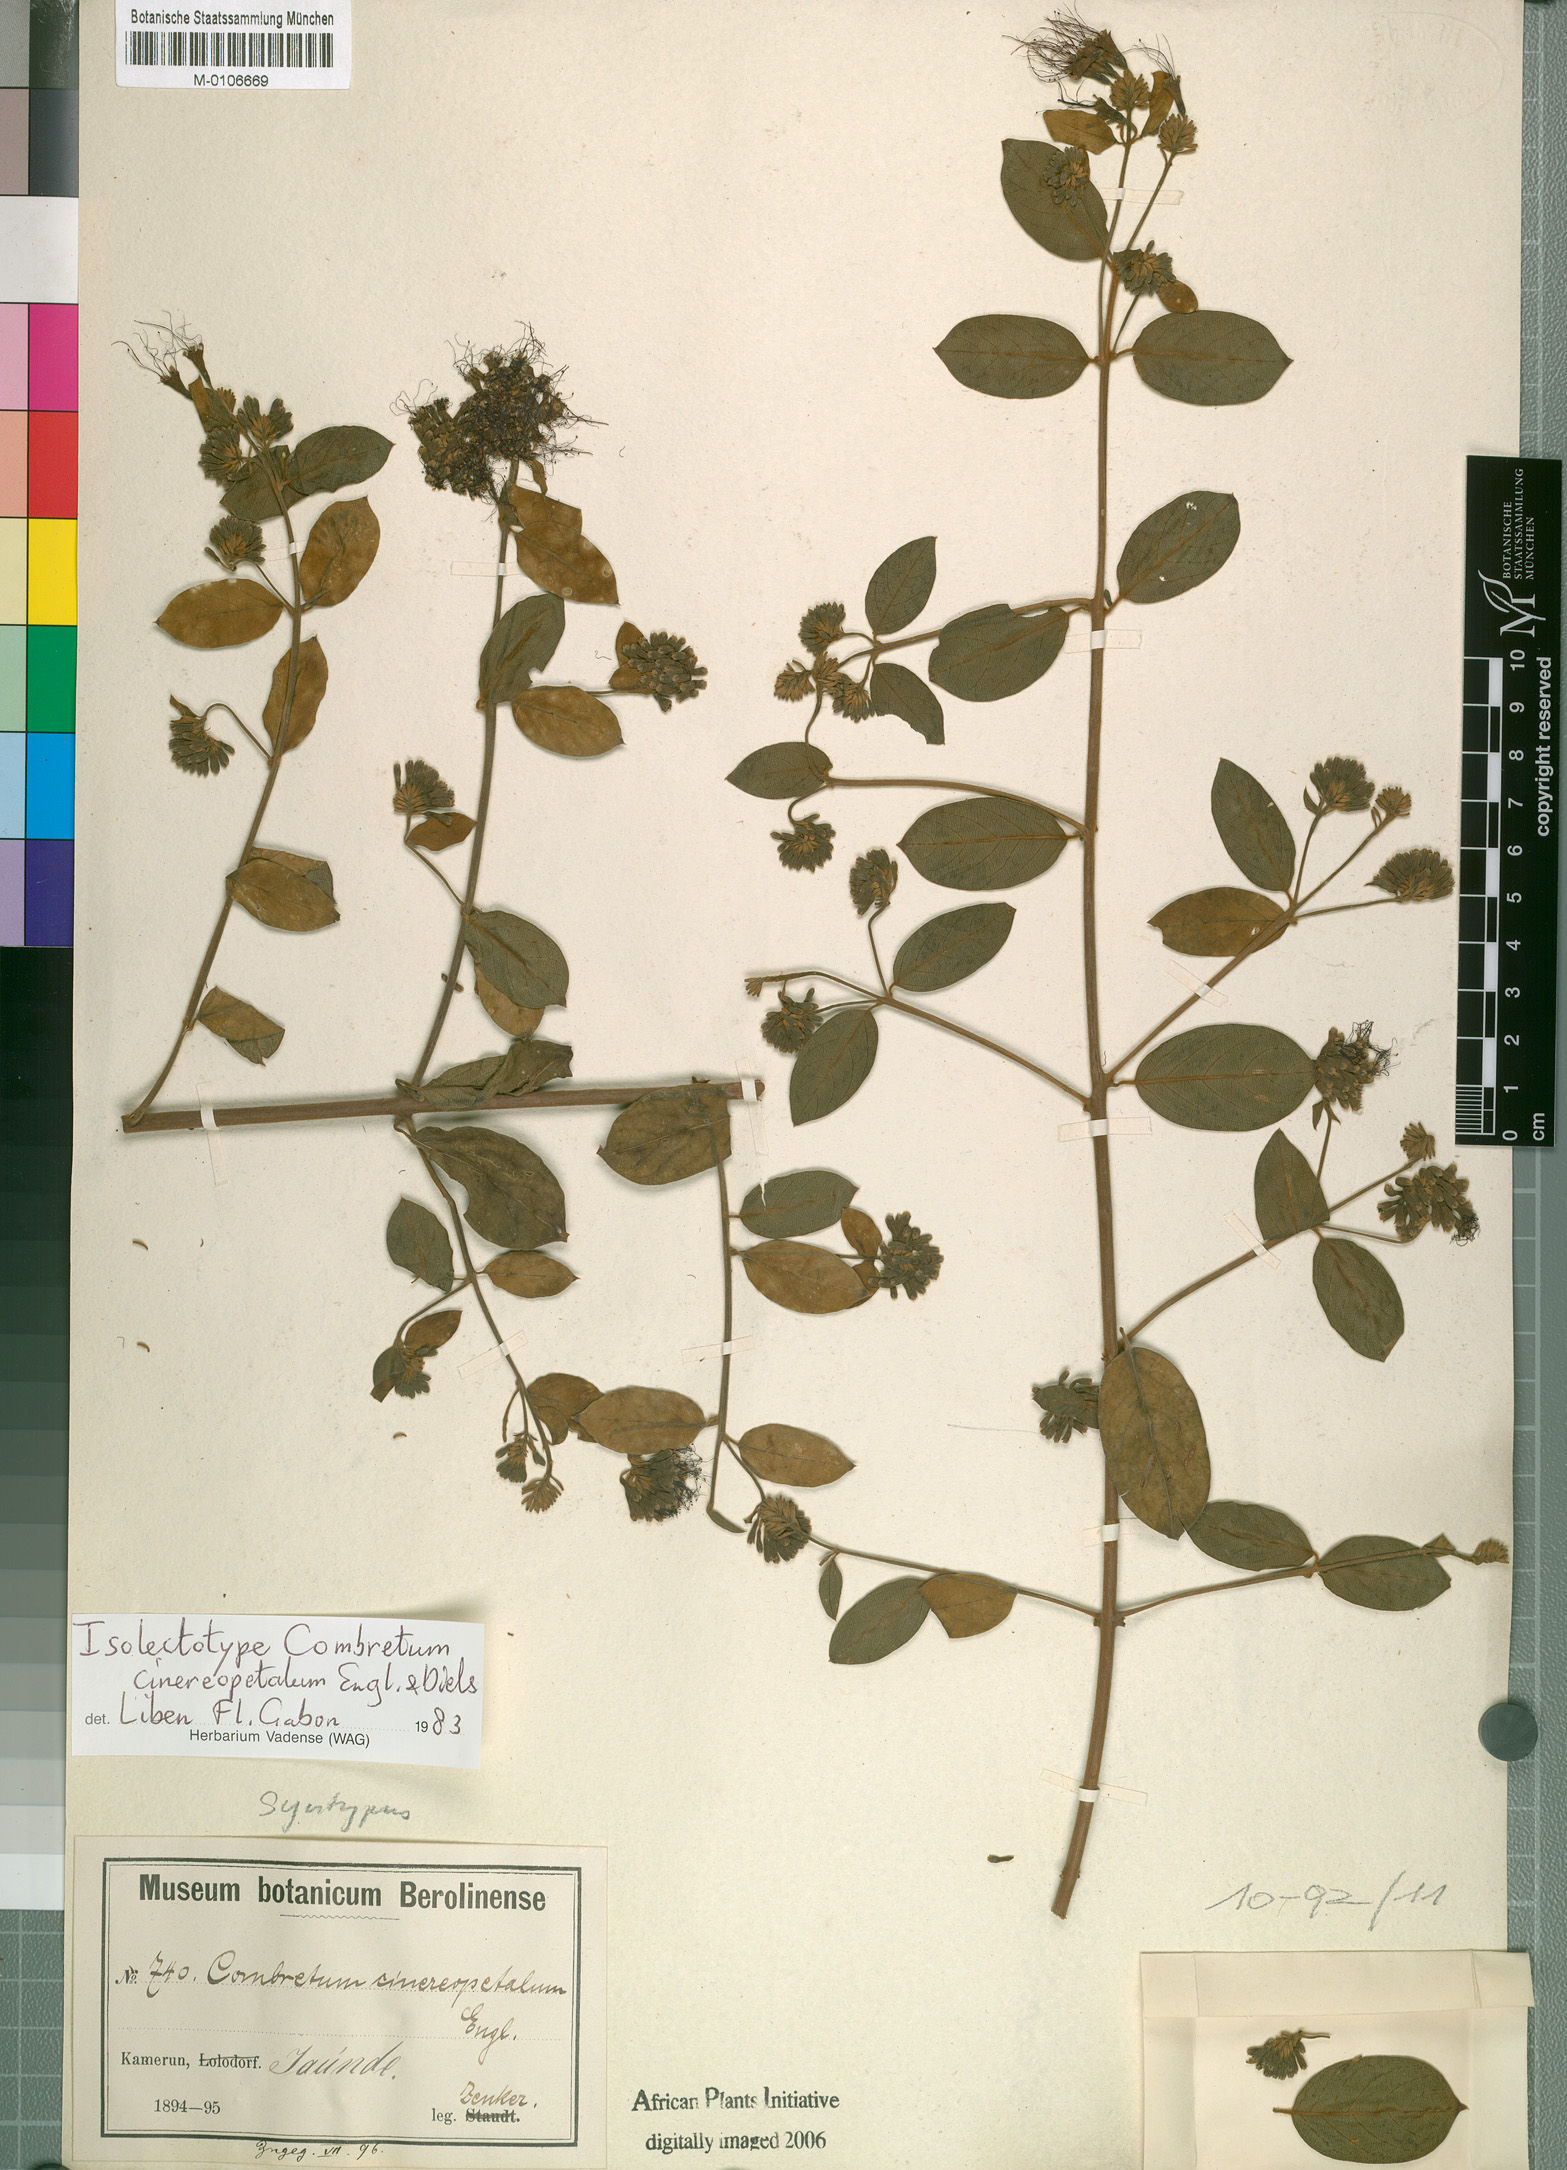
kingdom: Plantae
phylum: Tracheophyta
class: Magnoliopsida
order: Myrtales
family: Combretaceae
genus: Combretum
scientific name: Combretum cinereopetalum
